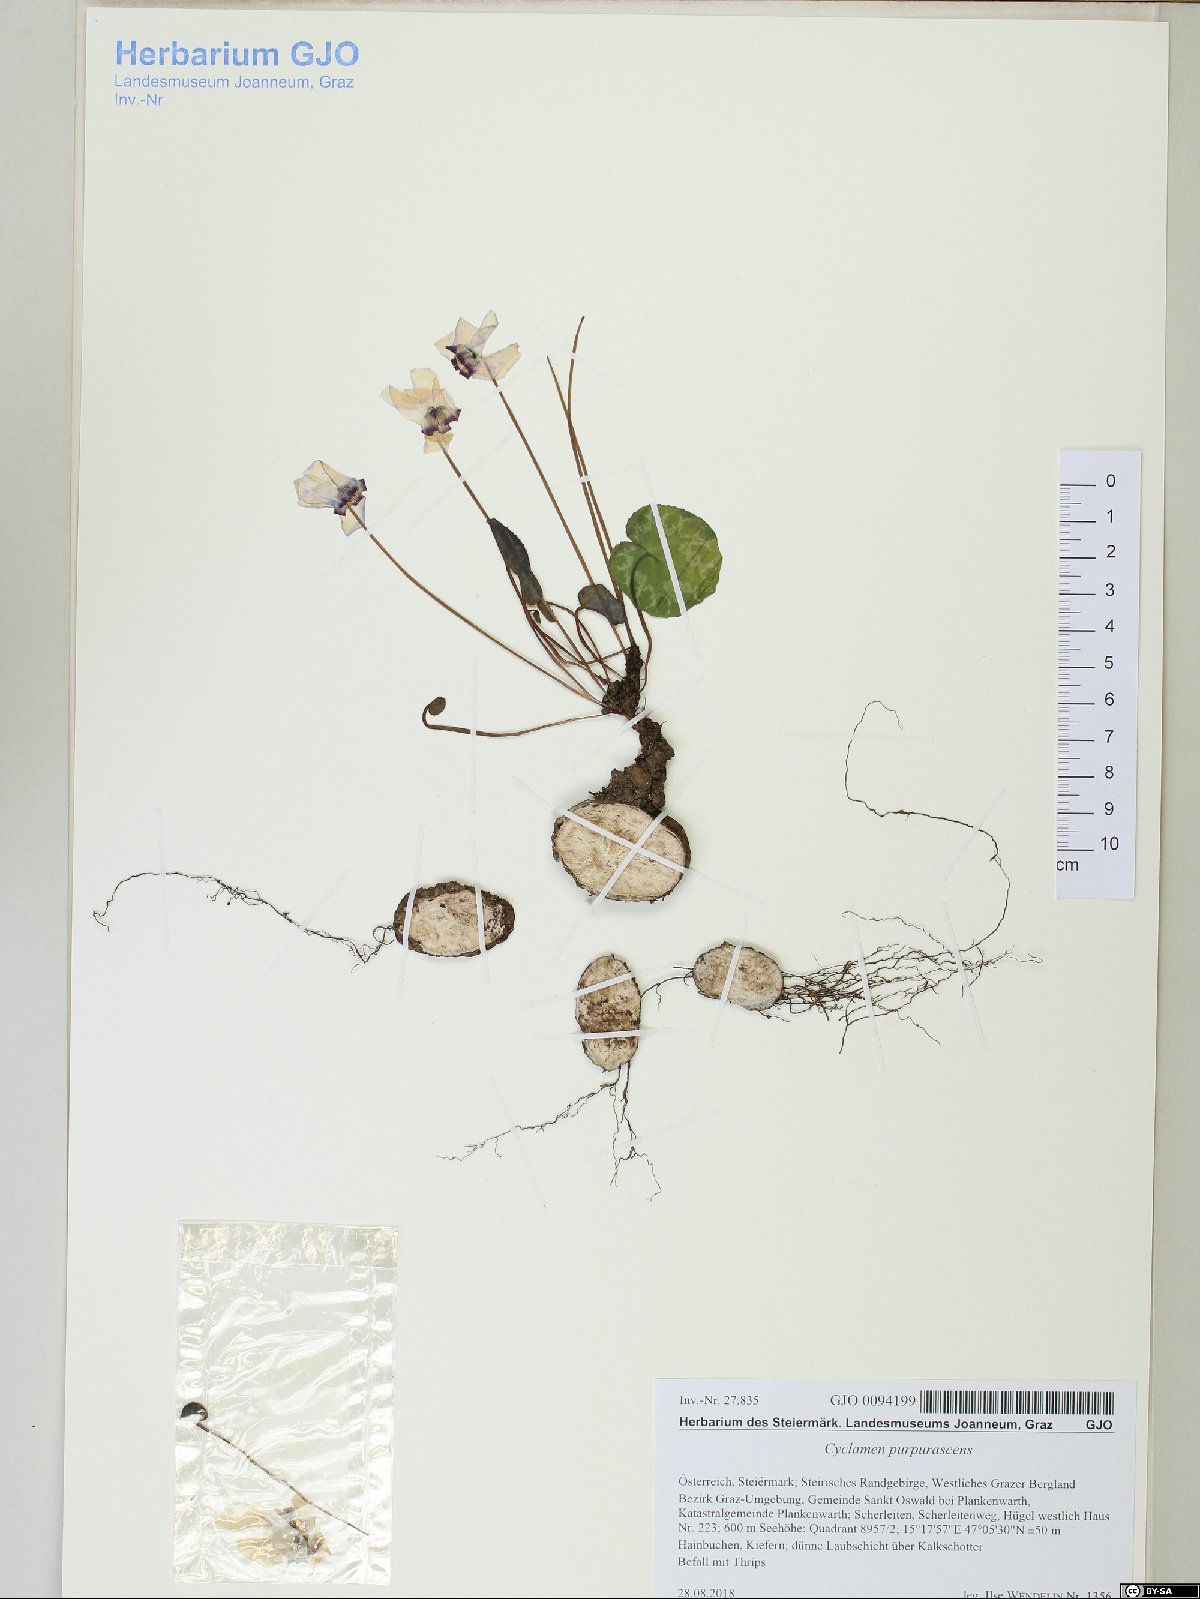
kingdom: Plantae
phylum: Tracheophyta
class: Magnoliopsida
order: Ericales
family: Primulaceae
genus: Cyclamen
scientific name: Cyclamen purpurascens
